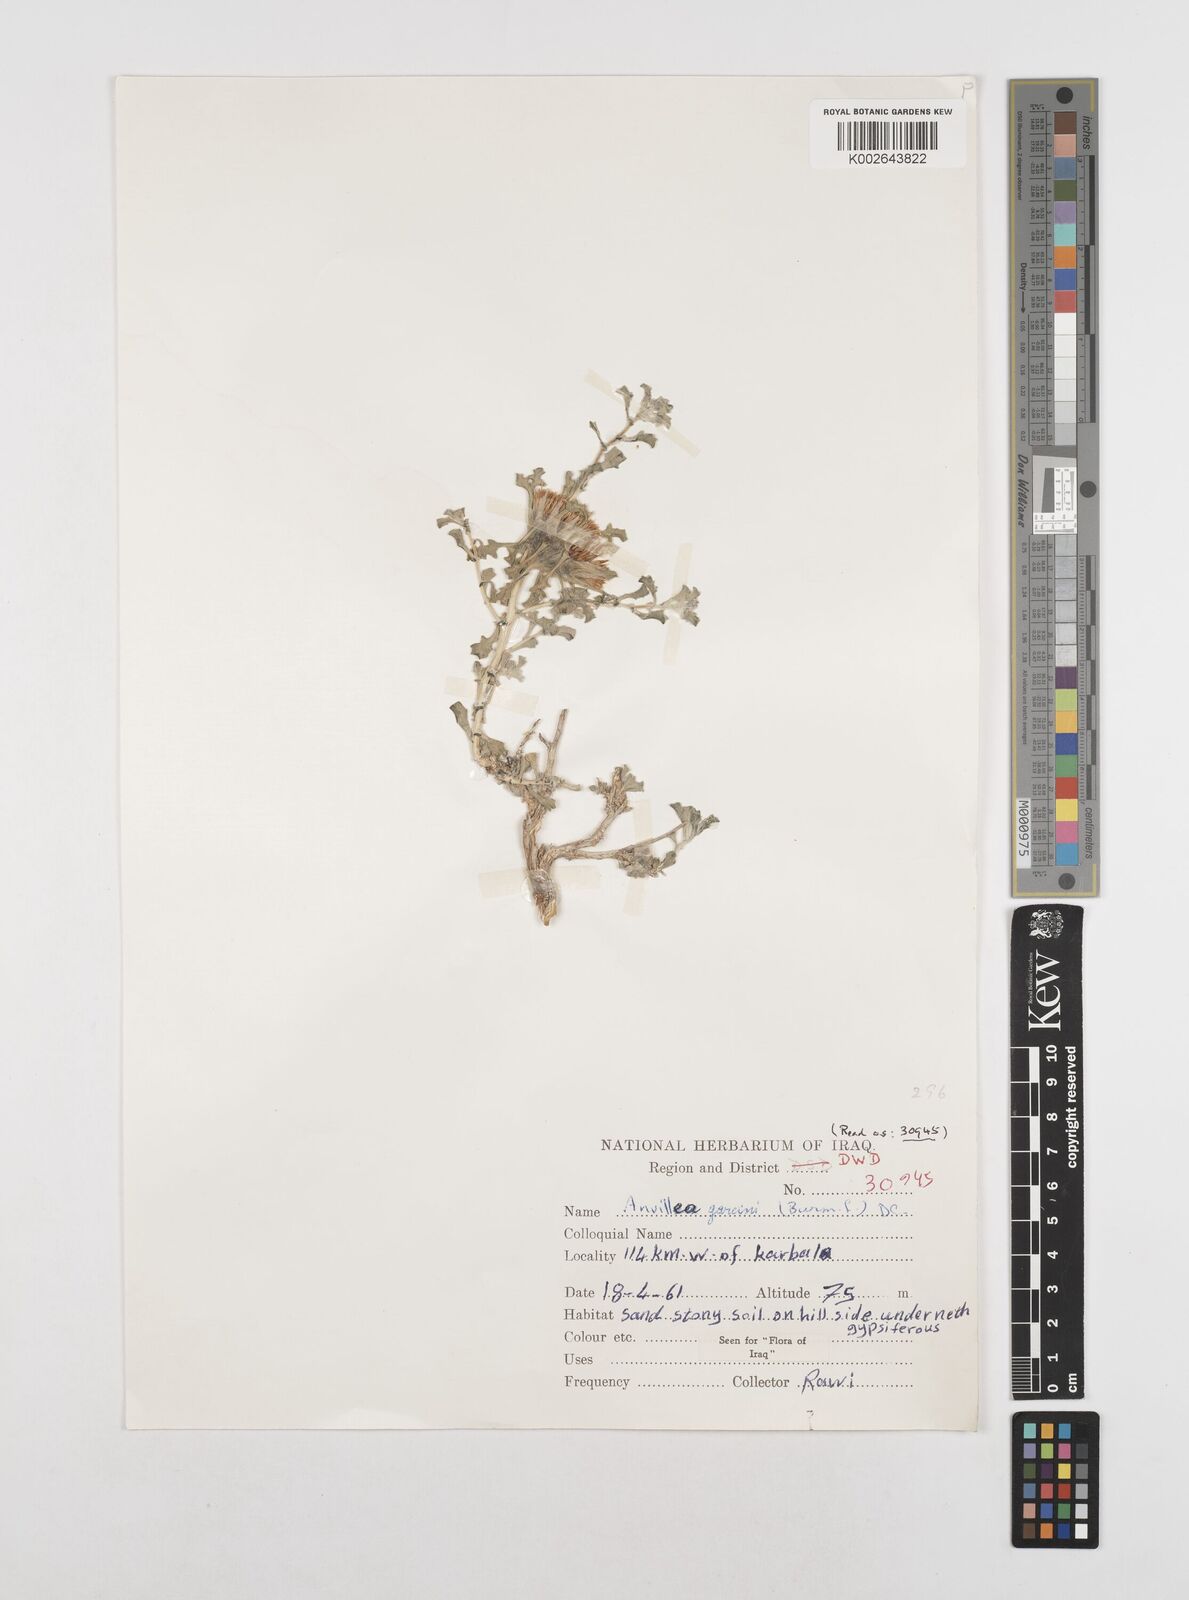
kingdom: Plantae
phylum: Tracheophyta
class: Magnoliopsida
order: Asterales
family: Asteraceae
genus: Anvillea
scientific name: Anvillea
